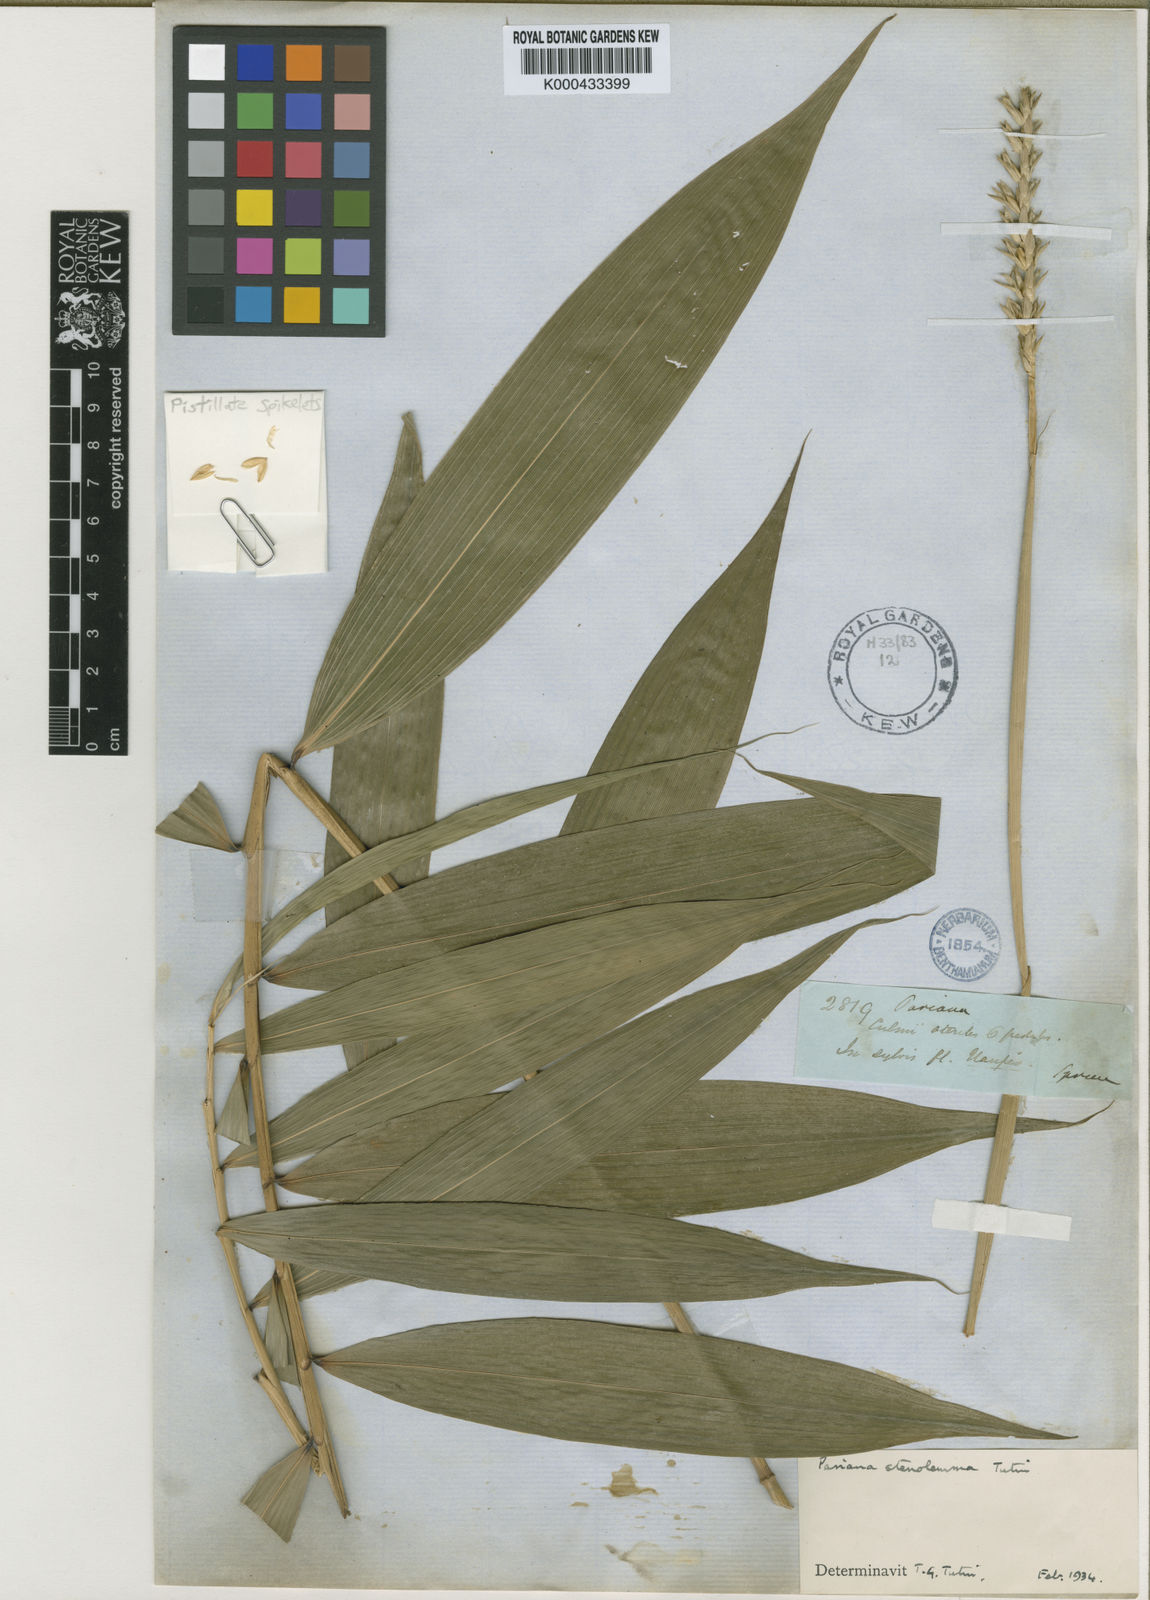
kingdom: Plantae
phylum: Tracheophyta
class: Liliopsida
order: Poales
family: Poaceae
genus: Pariana
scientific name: Pariana ulei
